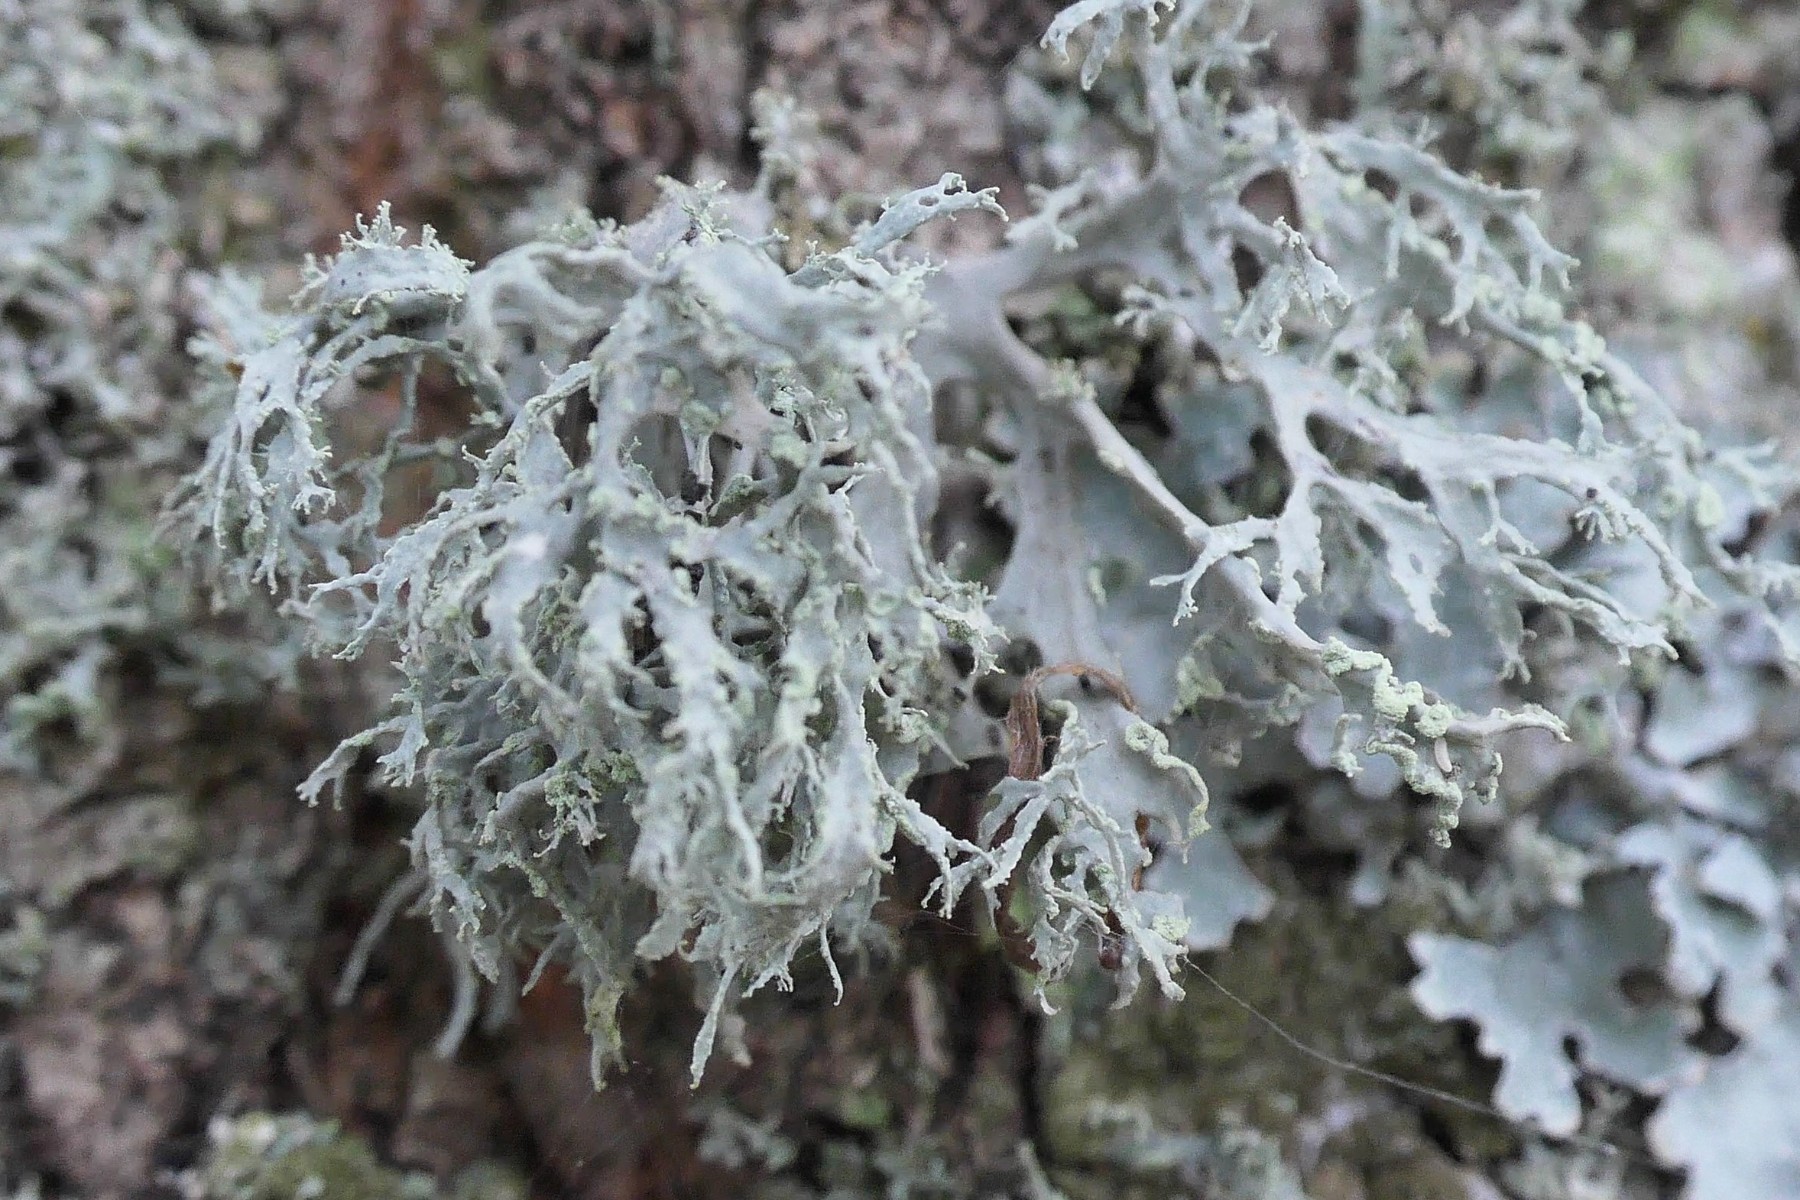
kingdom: Fungi
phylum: Ascomycota
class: Lecanoromycetes
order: Lecanorales
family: Ramalinaceae
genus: Ramalina
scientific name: Ramalina farinacea
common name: melet grenlav
